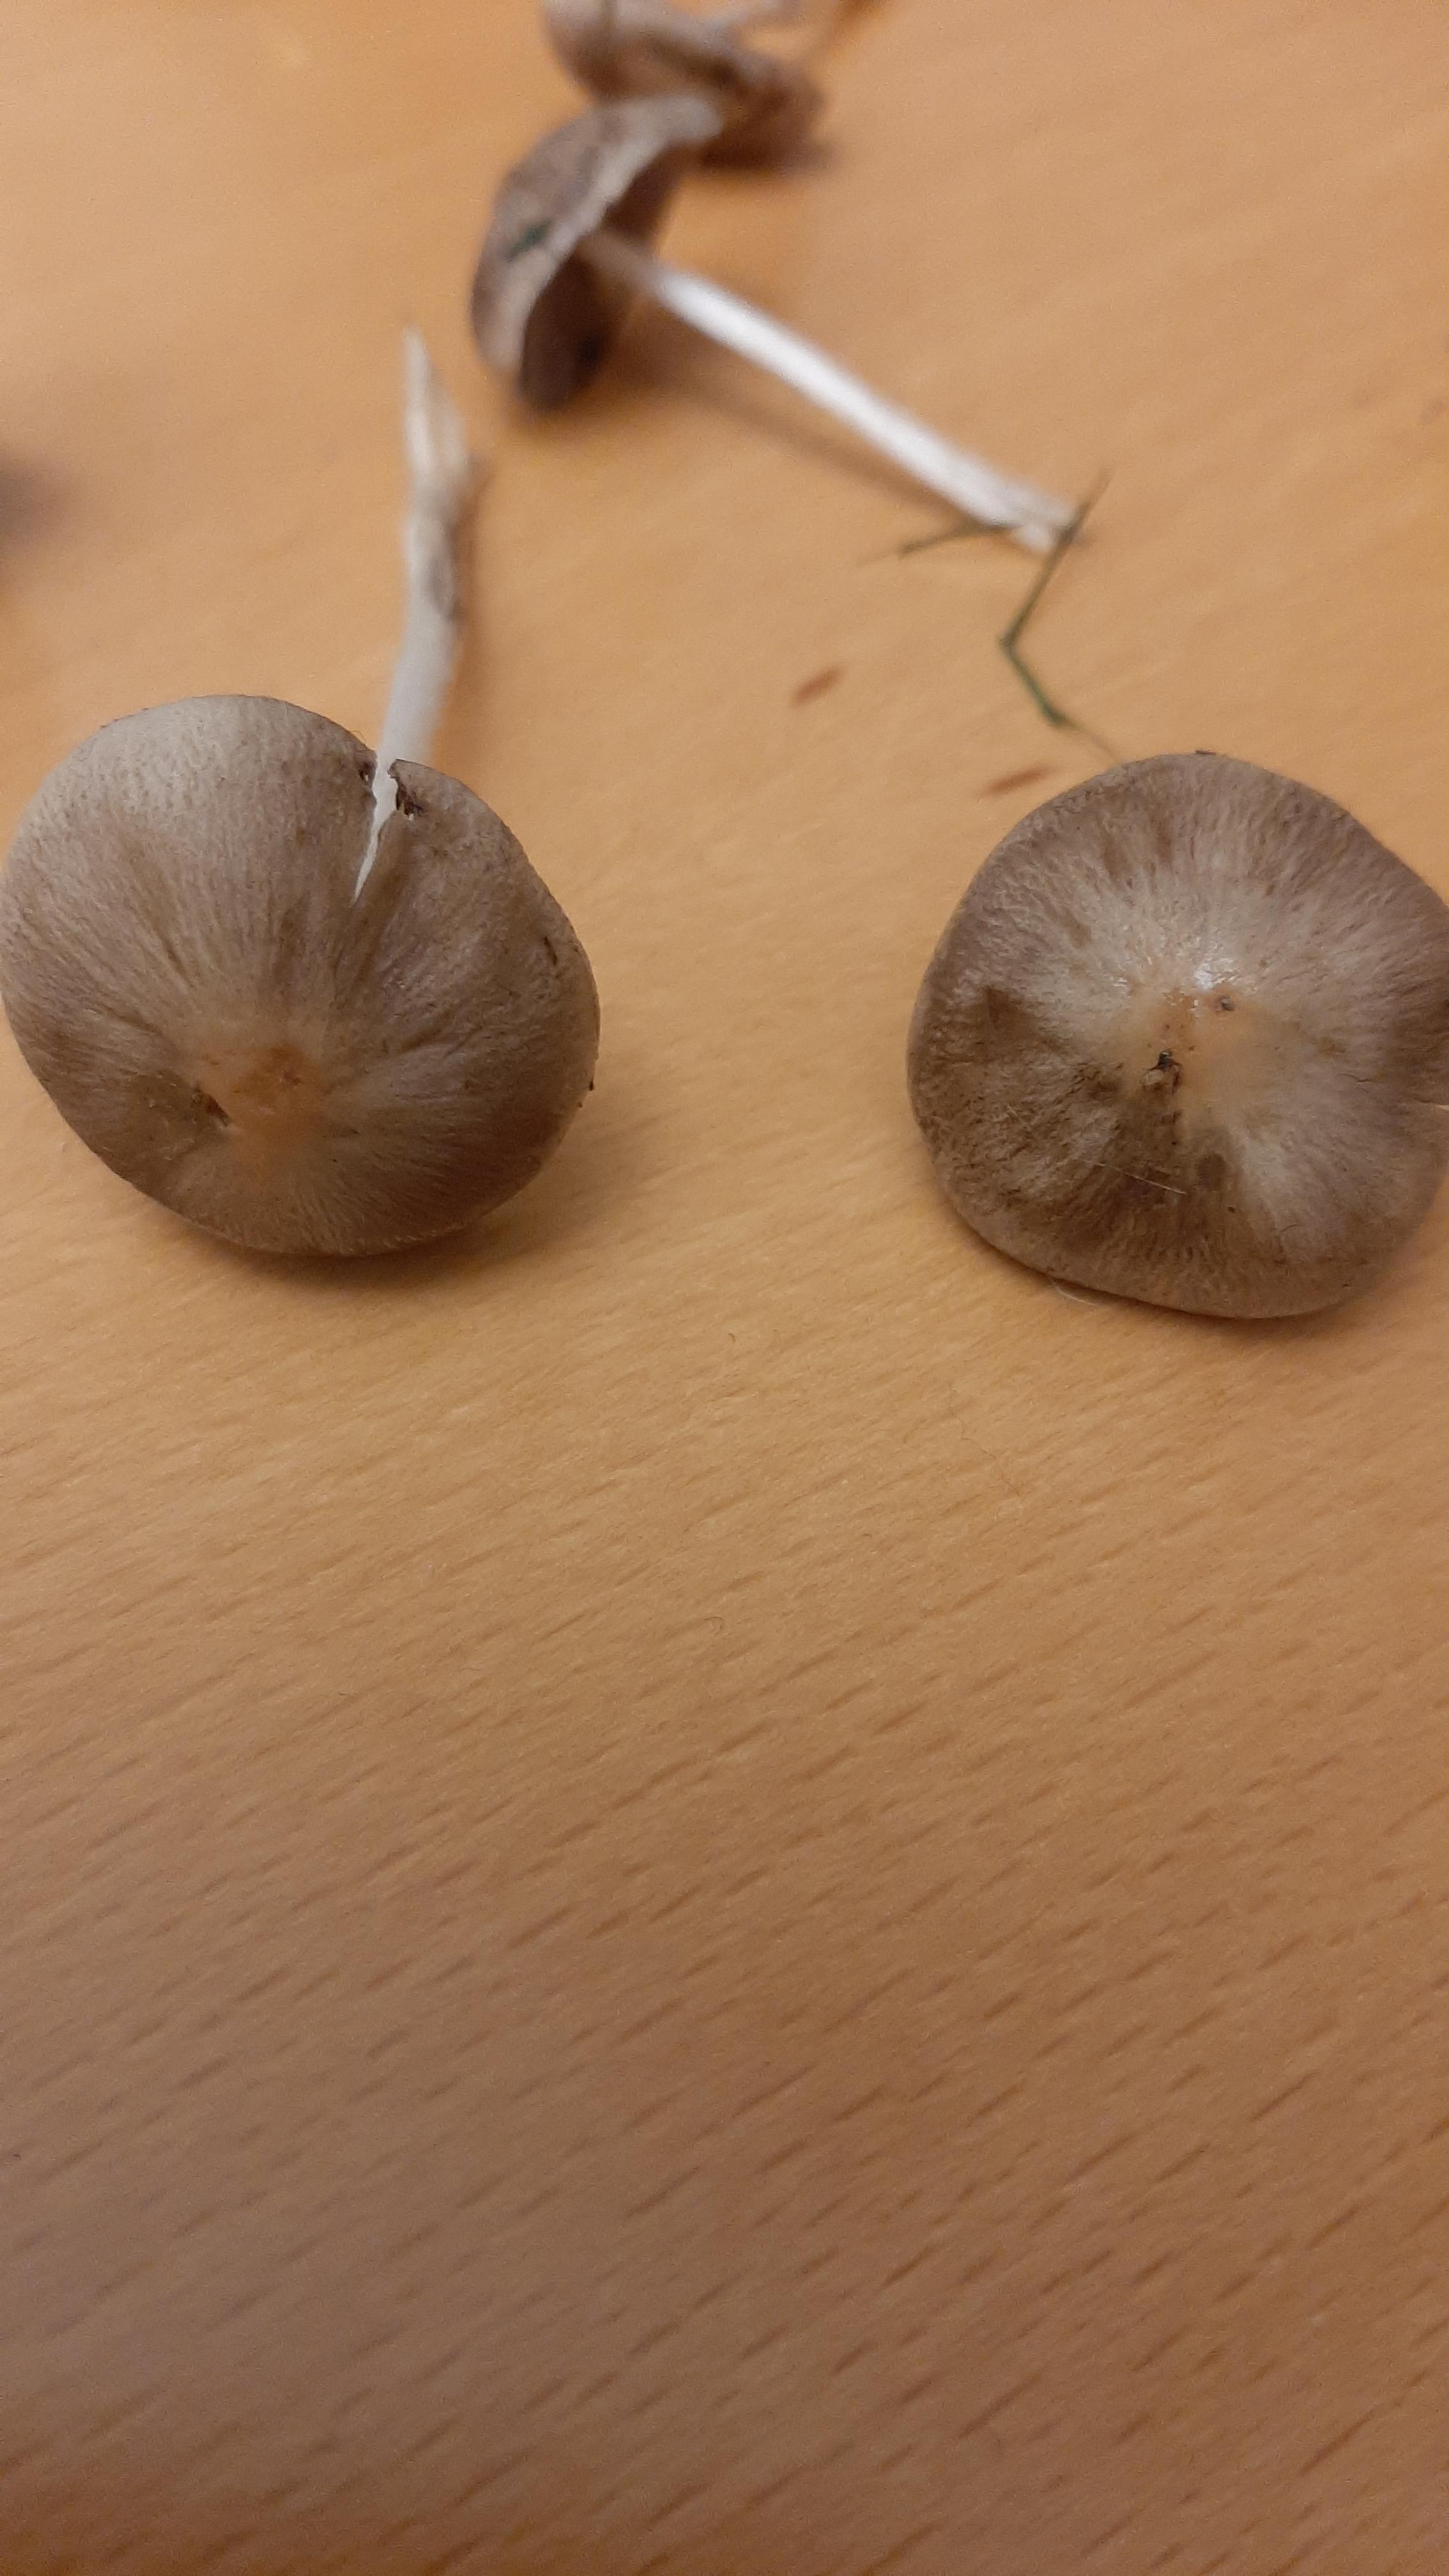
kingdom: Fungi
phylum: Basidiomycota
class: Agaricomycetes
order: Agaricales
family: Bolbitiaceae
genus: Panaeolina
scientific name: Panaeolina foenisecii
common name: høslætsvamp
